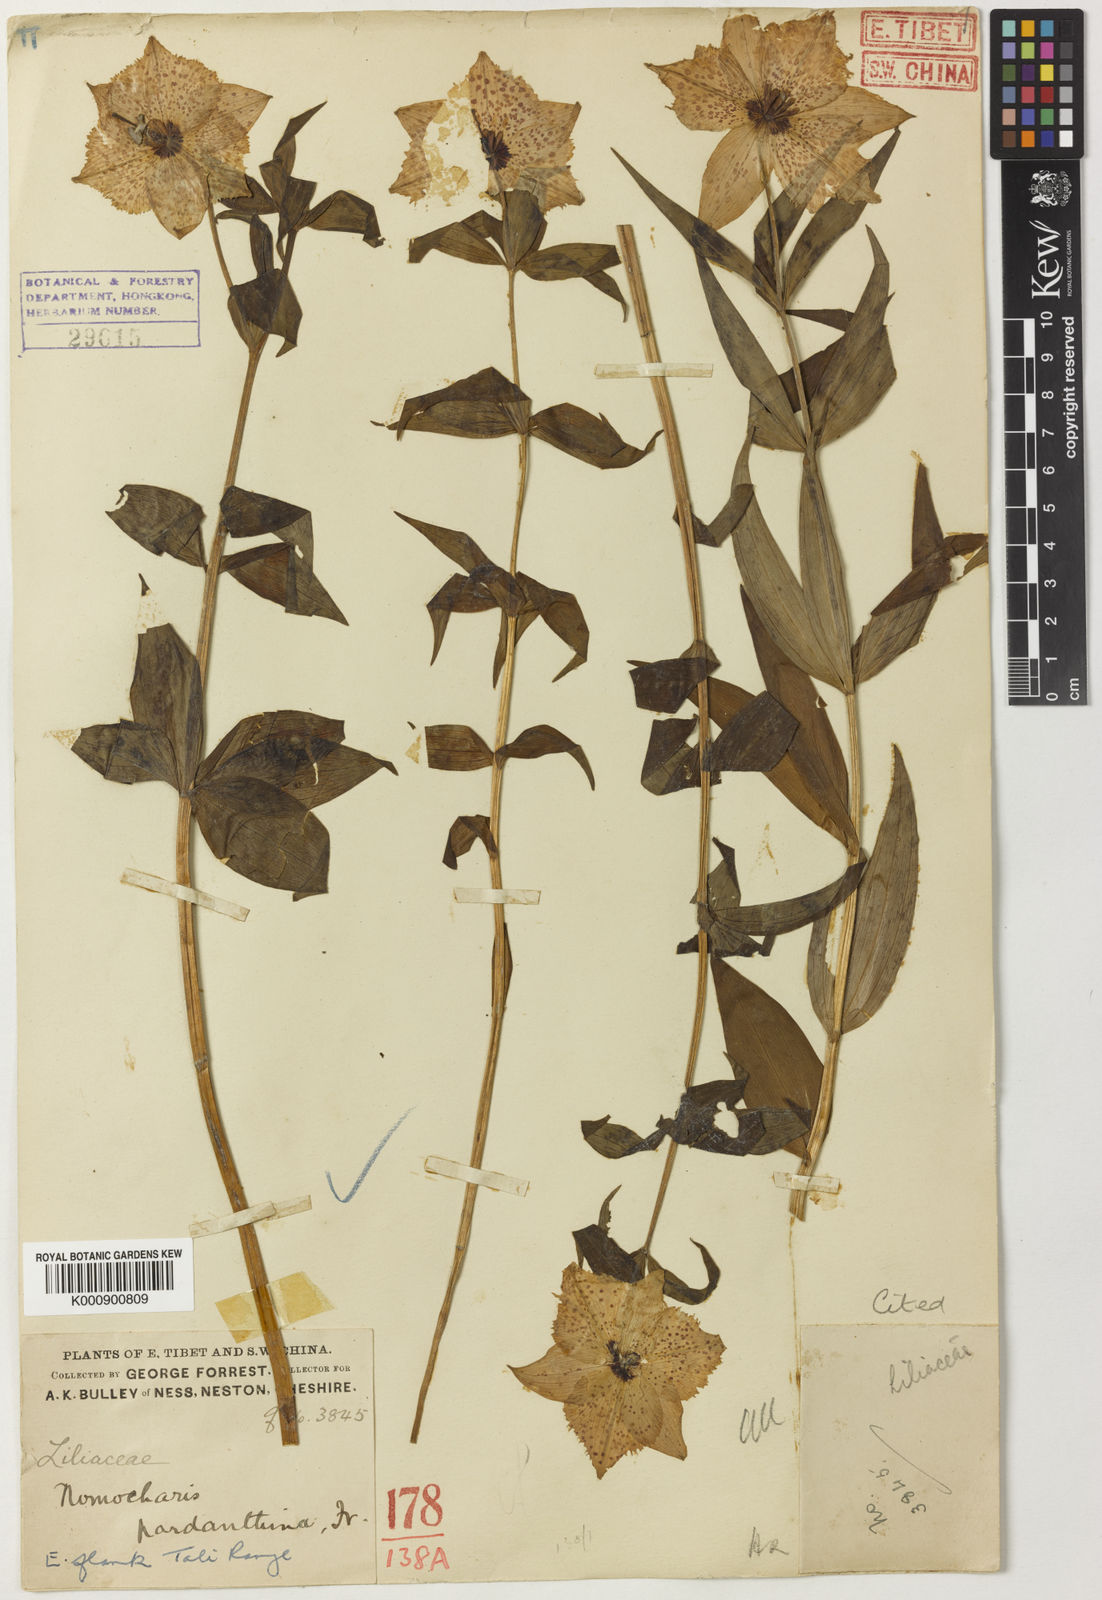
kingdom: Plantae
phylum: Tracheophyta
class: Liliopsida
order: Liliales
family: Liliaceae
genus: Lilium
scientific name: Lilium pardanthinum
